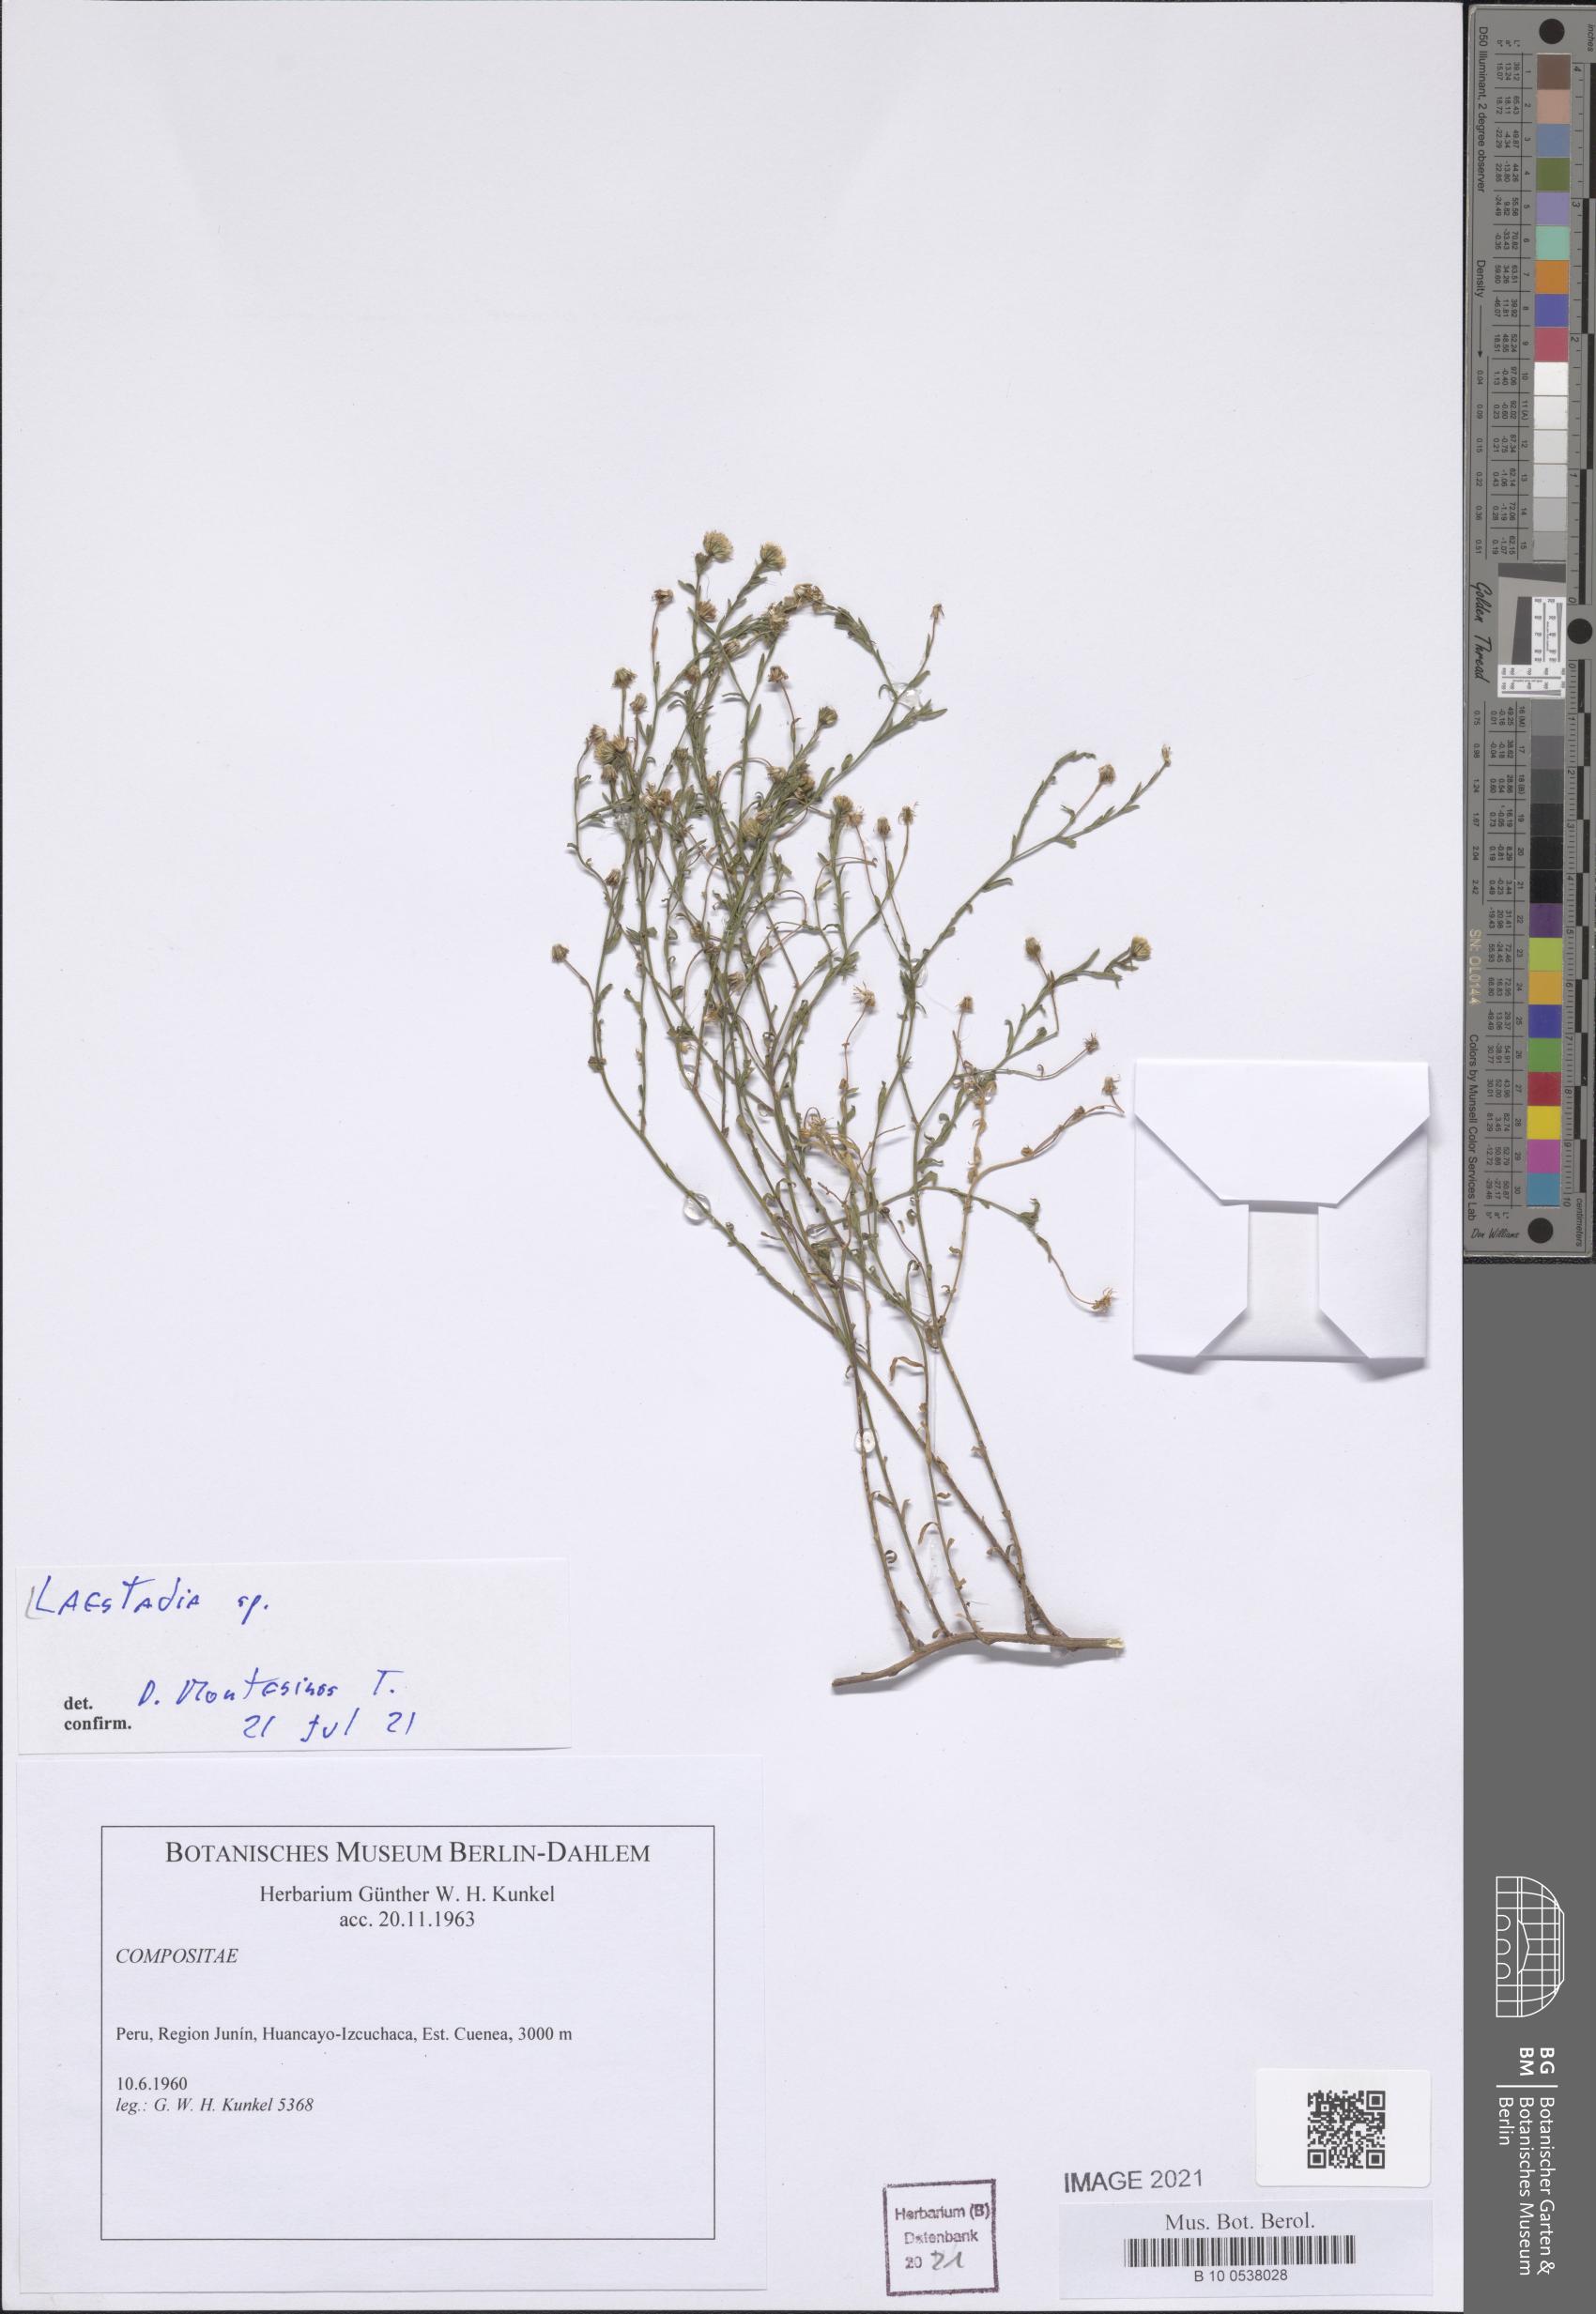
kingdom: Plantae
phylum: Tracheophyta
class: Magnoliopsida
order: Asterales
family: Asteraceae
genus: Laestadia
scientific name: Laestadia
